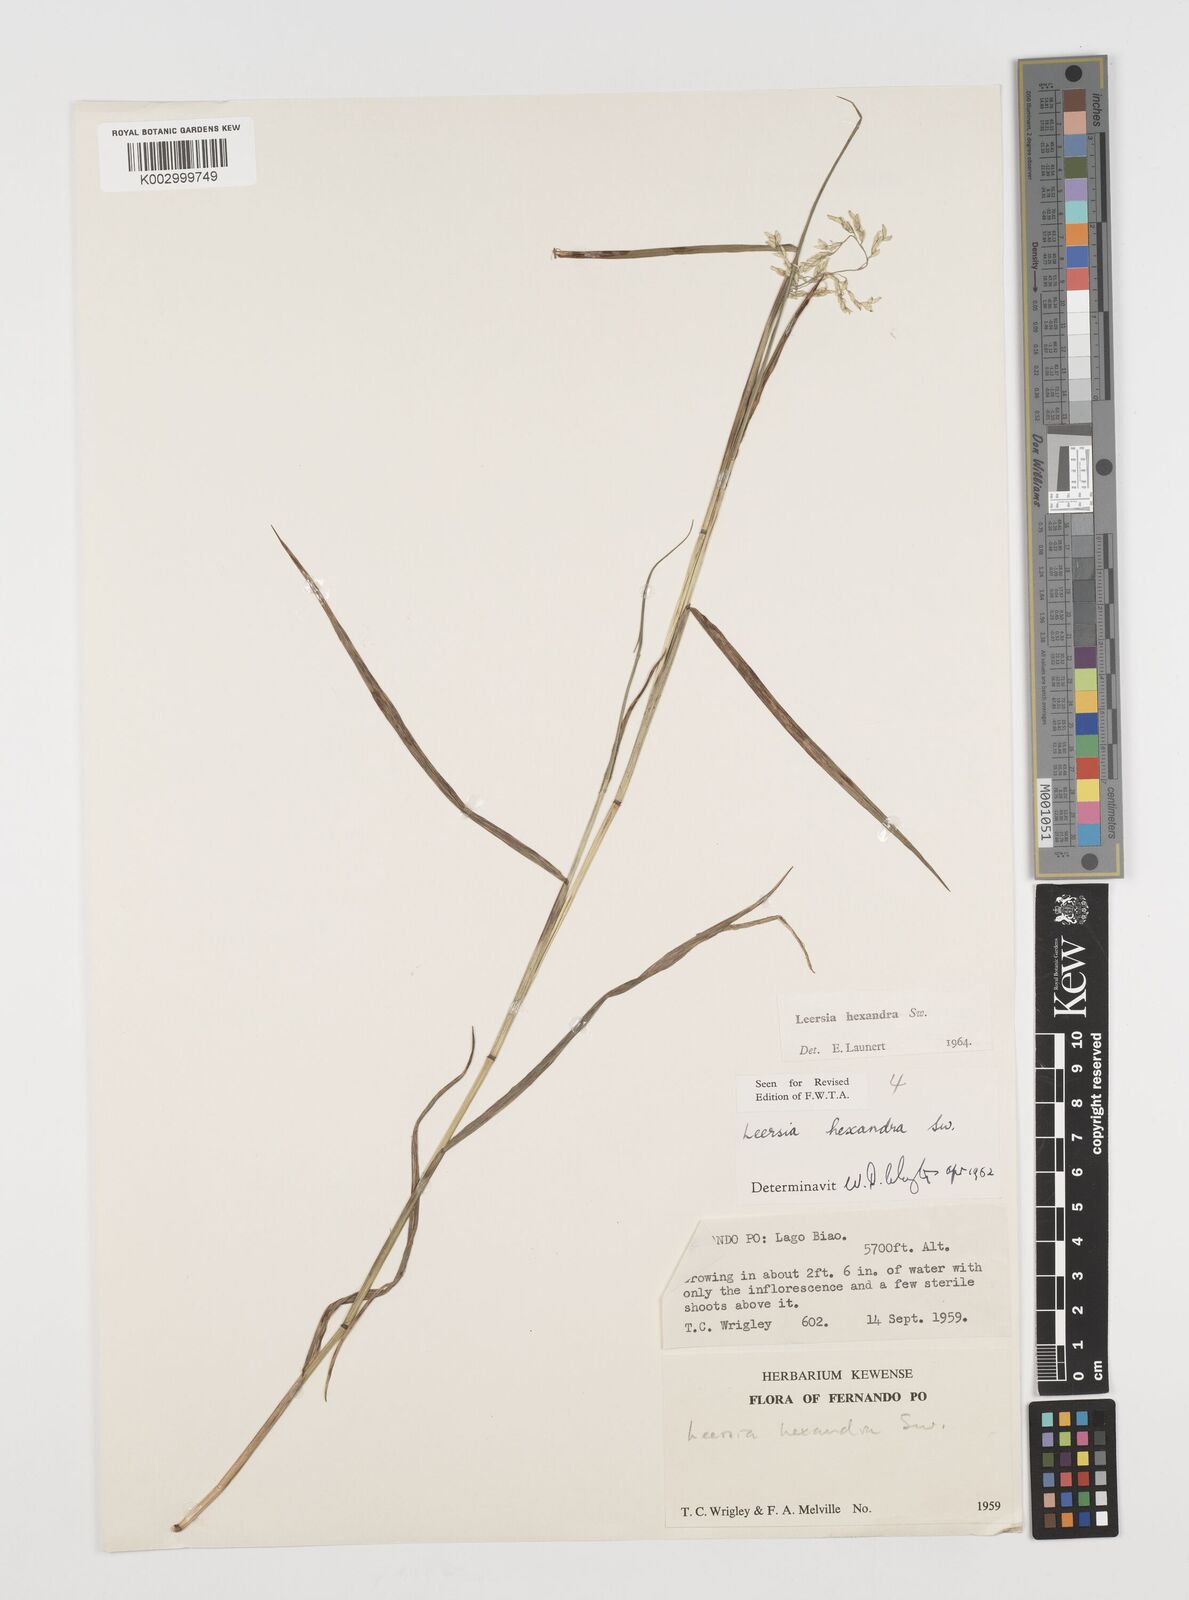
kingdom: Plantae
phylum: Tracheophyta
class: Liliopsida
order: Poales
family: Poaceae
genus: Leersia
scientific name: Leersia hexandra
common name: Southern cut grass
